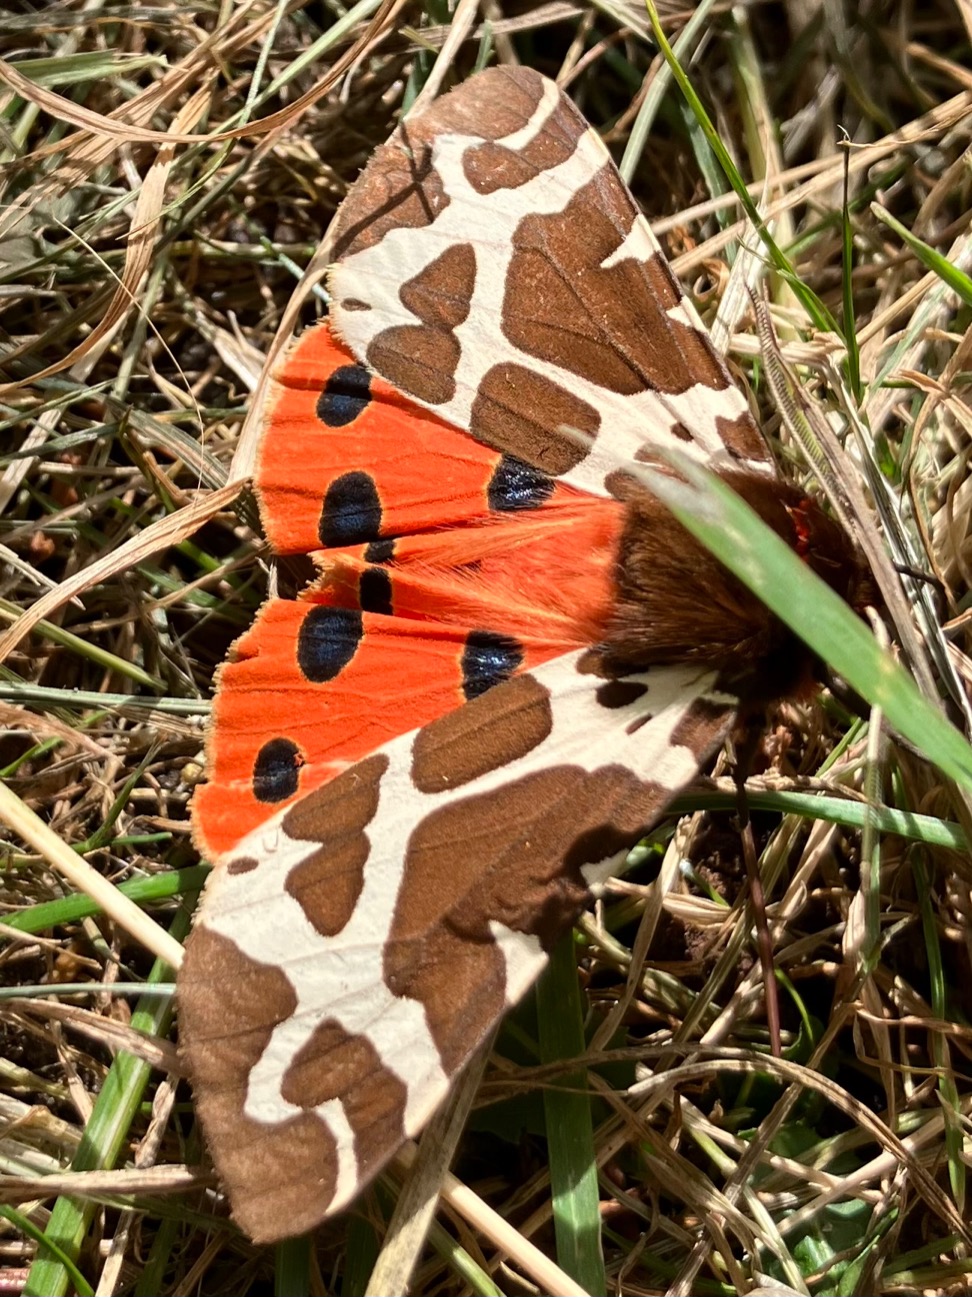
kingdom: Animalia
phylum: Arthropoda
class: Insecta
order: Lepidoptera
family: Erebidae
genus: Arctia
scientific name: Arctia caja
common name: Brun bjørn
